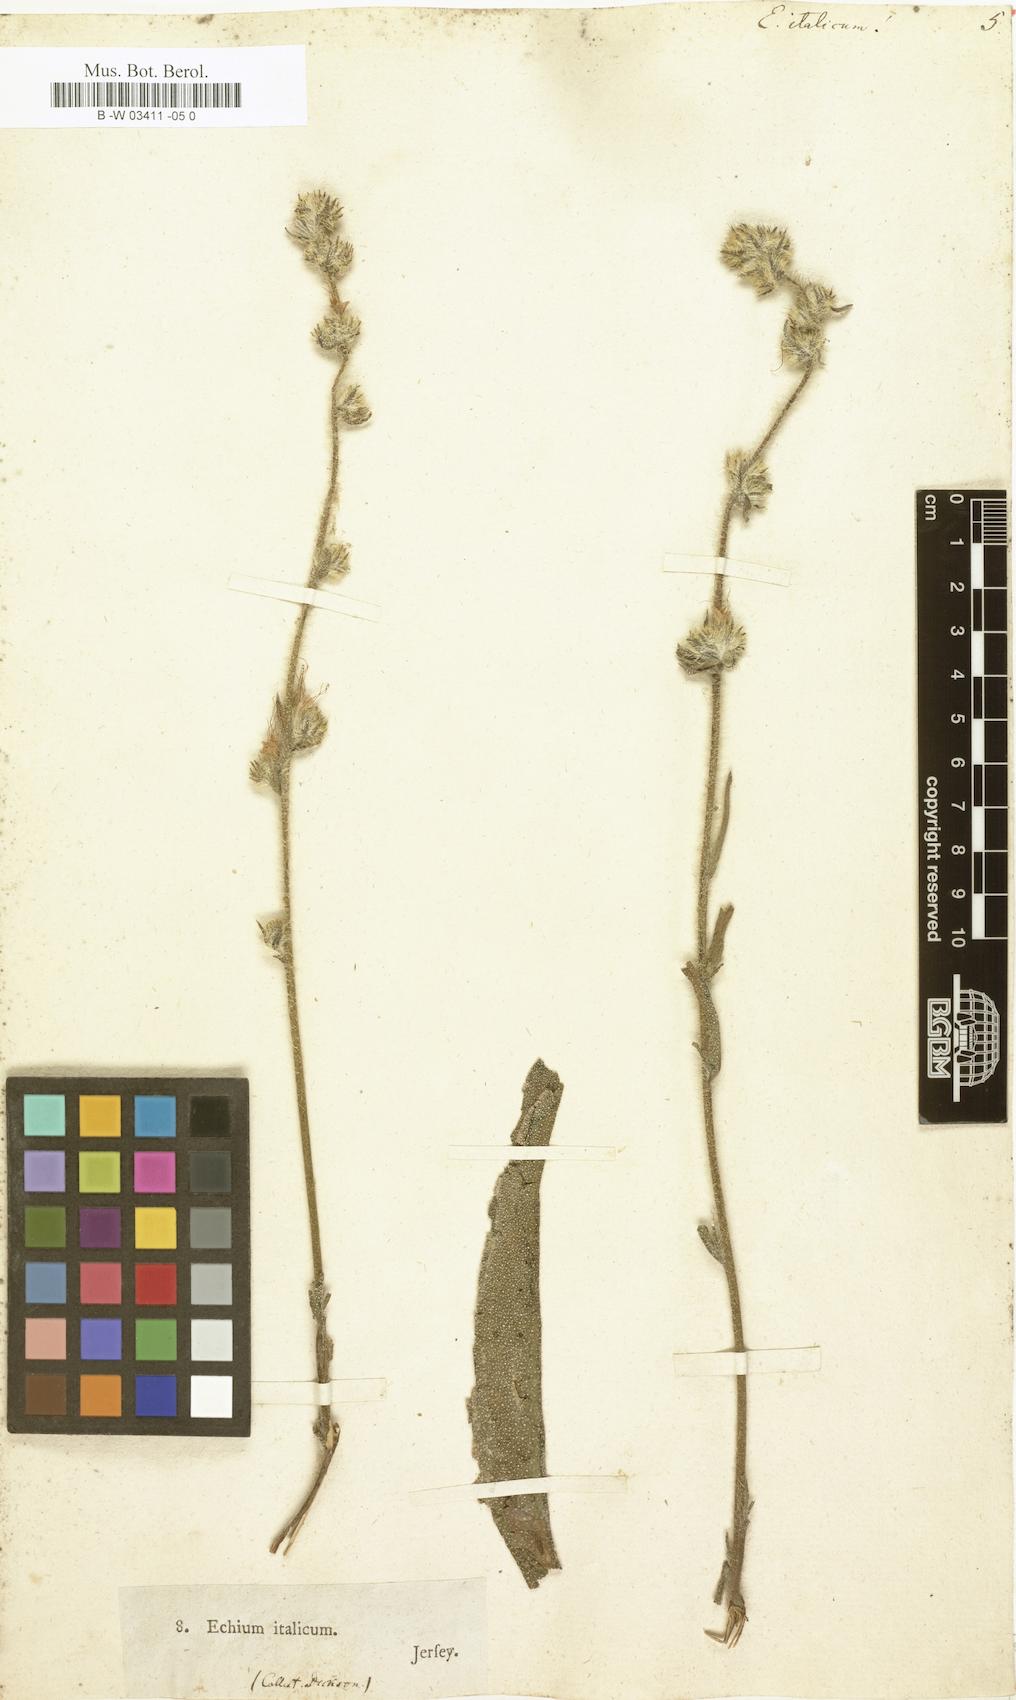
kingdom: Plantae
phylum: Tracheophyta
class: Magnoliopsida
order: Boraginales
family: Boraginaceae
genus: Echium
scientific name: Echium flavum
